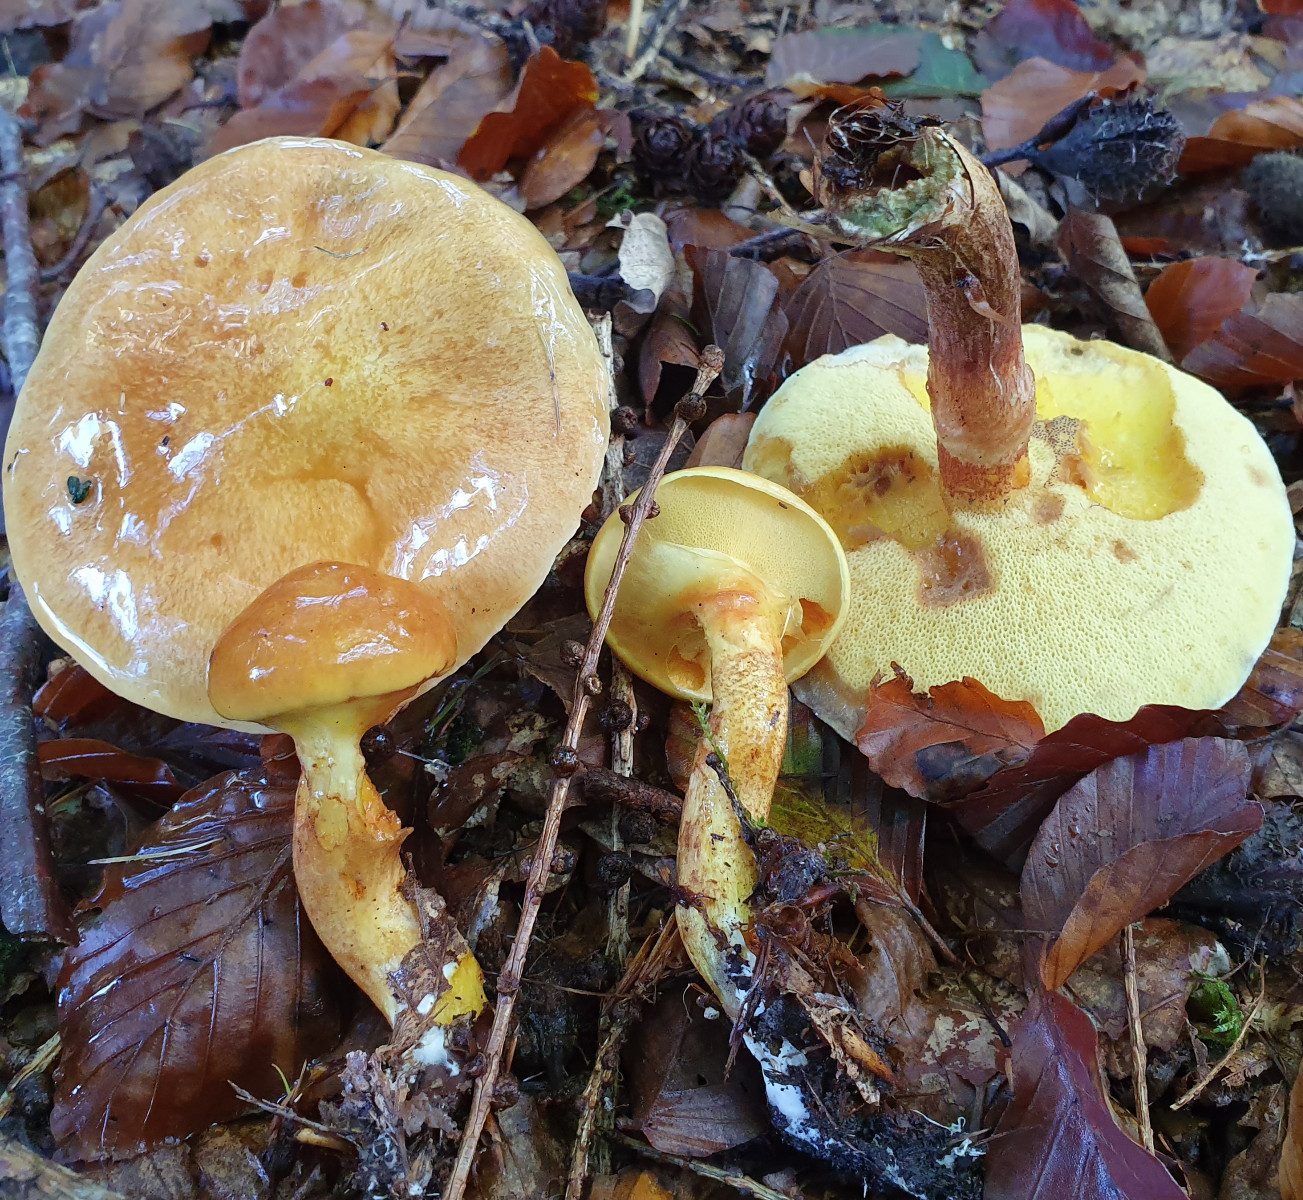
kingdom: Fungi
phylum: Basidiomycota
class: Agaricomycetes
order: Boletales
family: Suillaceae
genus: Suillus
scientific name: Suillus grevillei
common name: lærke-slimrørhat
